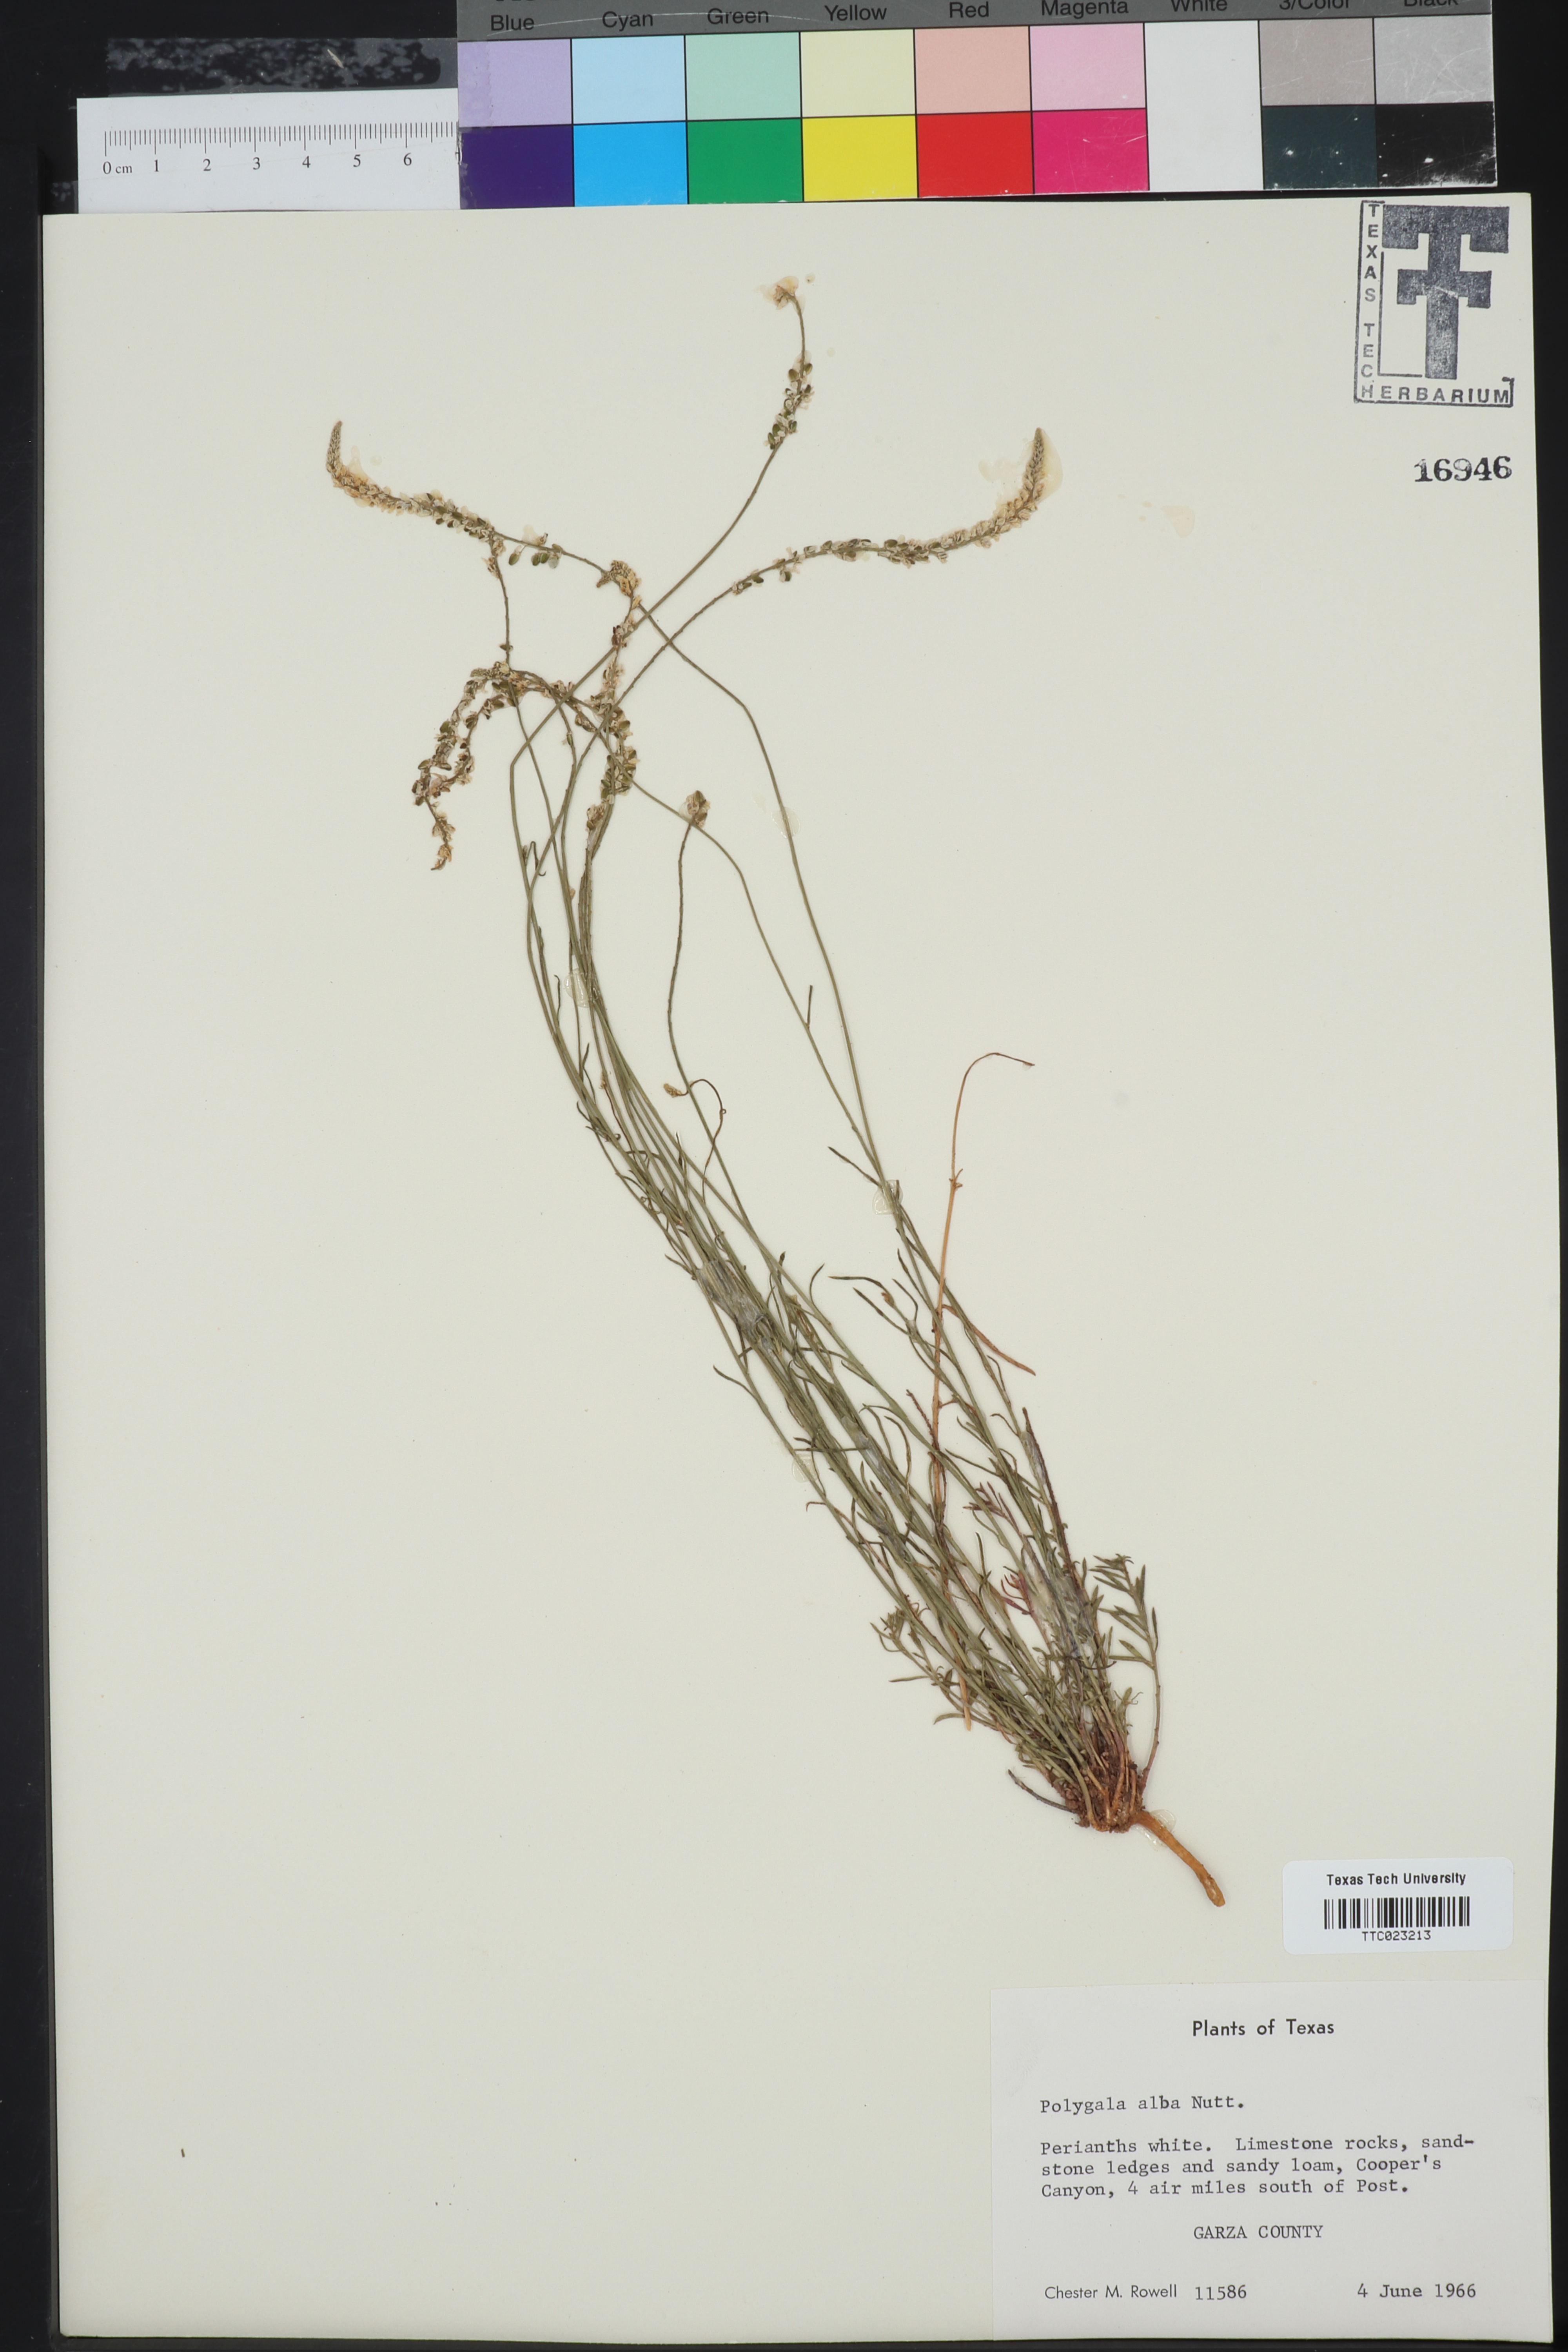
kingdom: Plantae
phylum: Tracheophyta
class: Magnoliopsida
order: Fabales
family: Polygalaceae
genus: Polygala
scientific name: Polygala alba
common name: White milkwort
